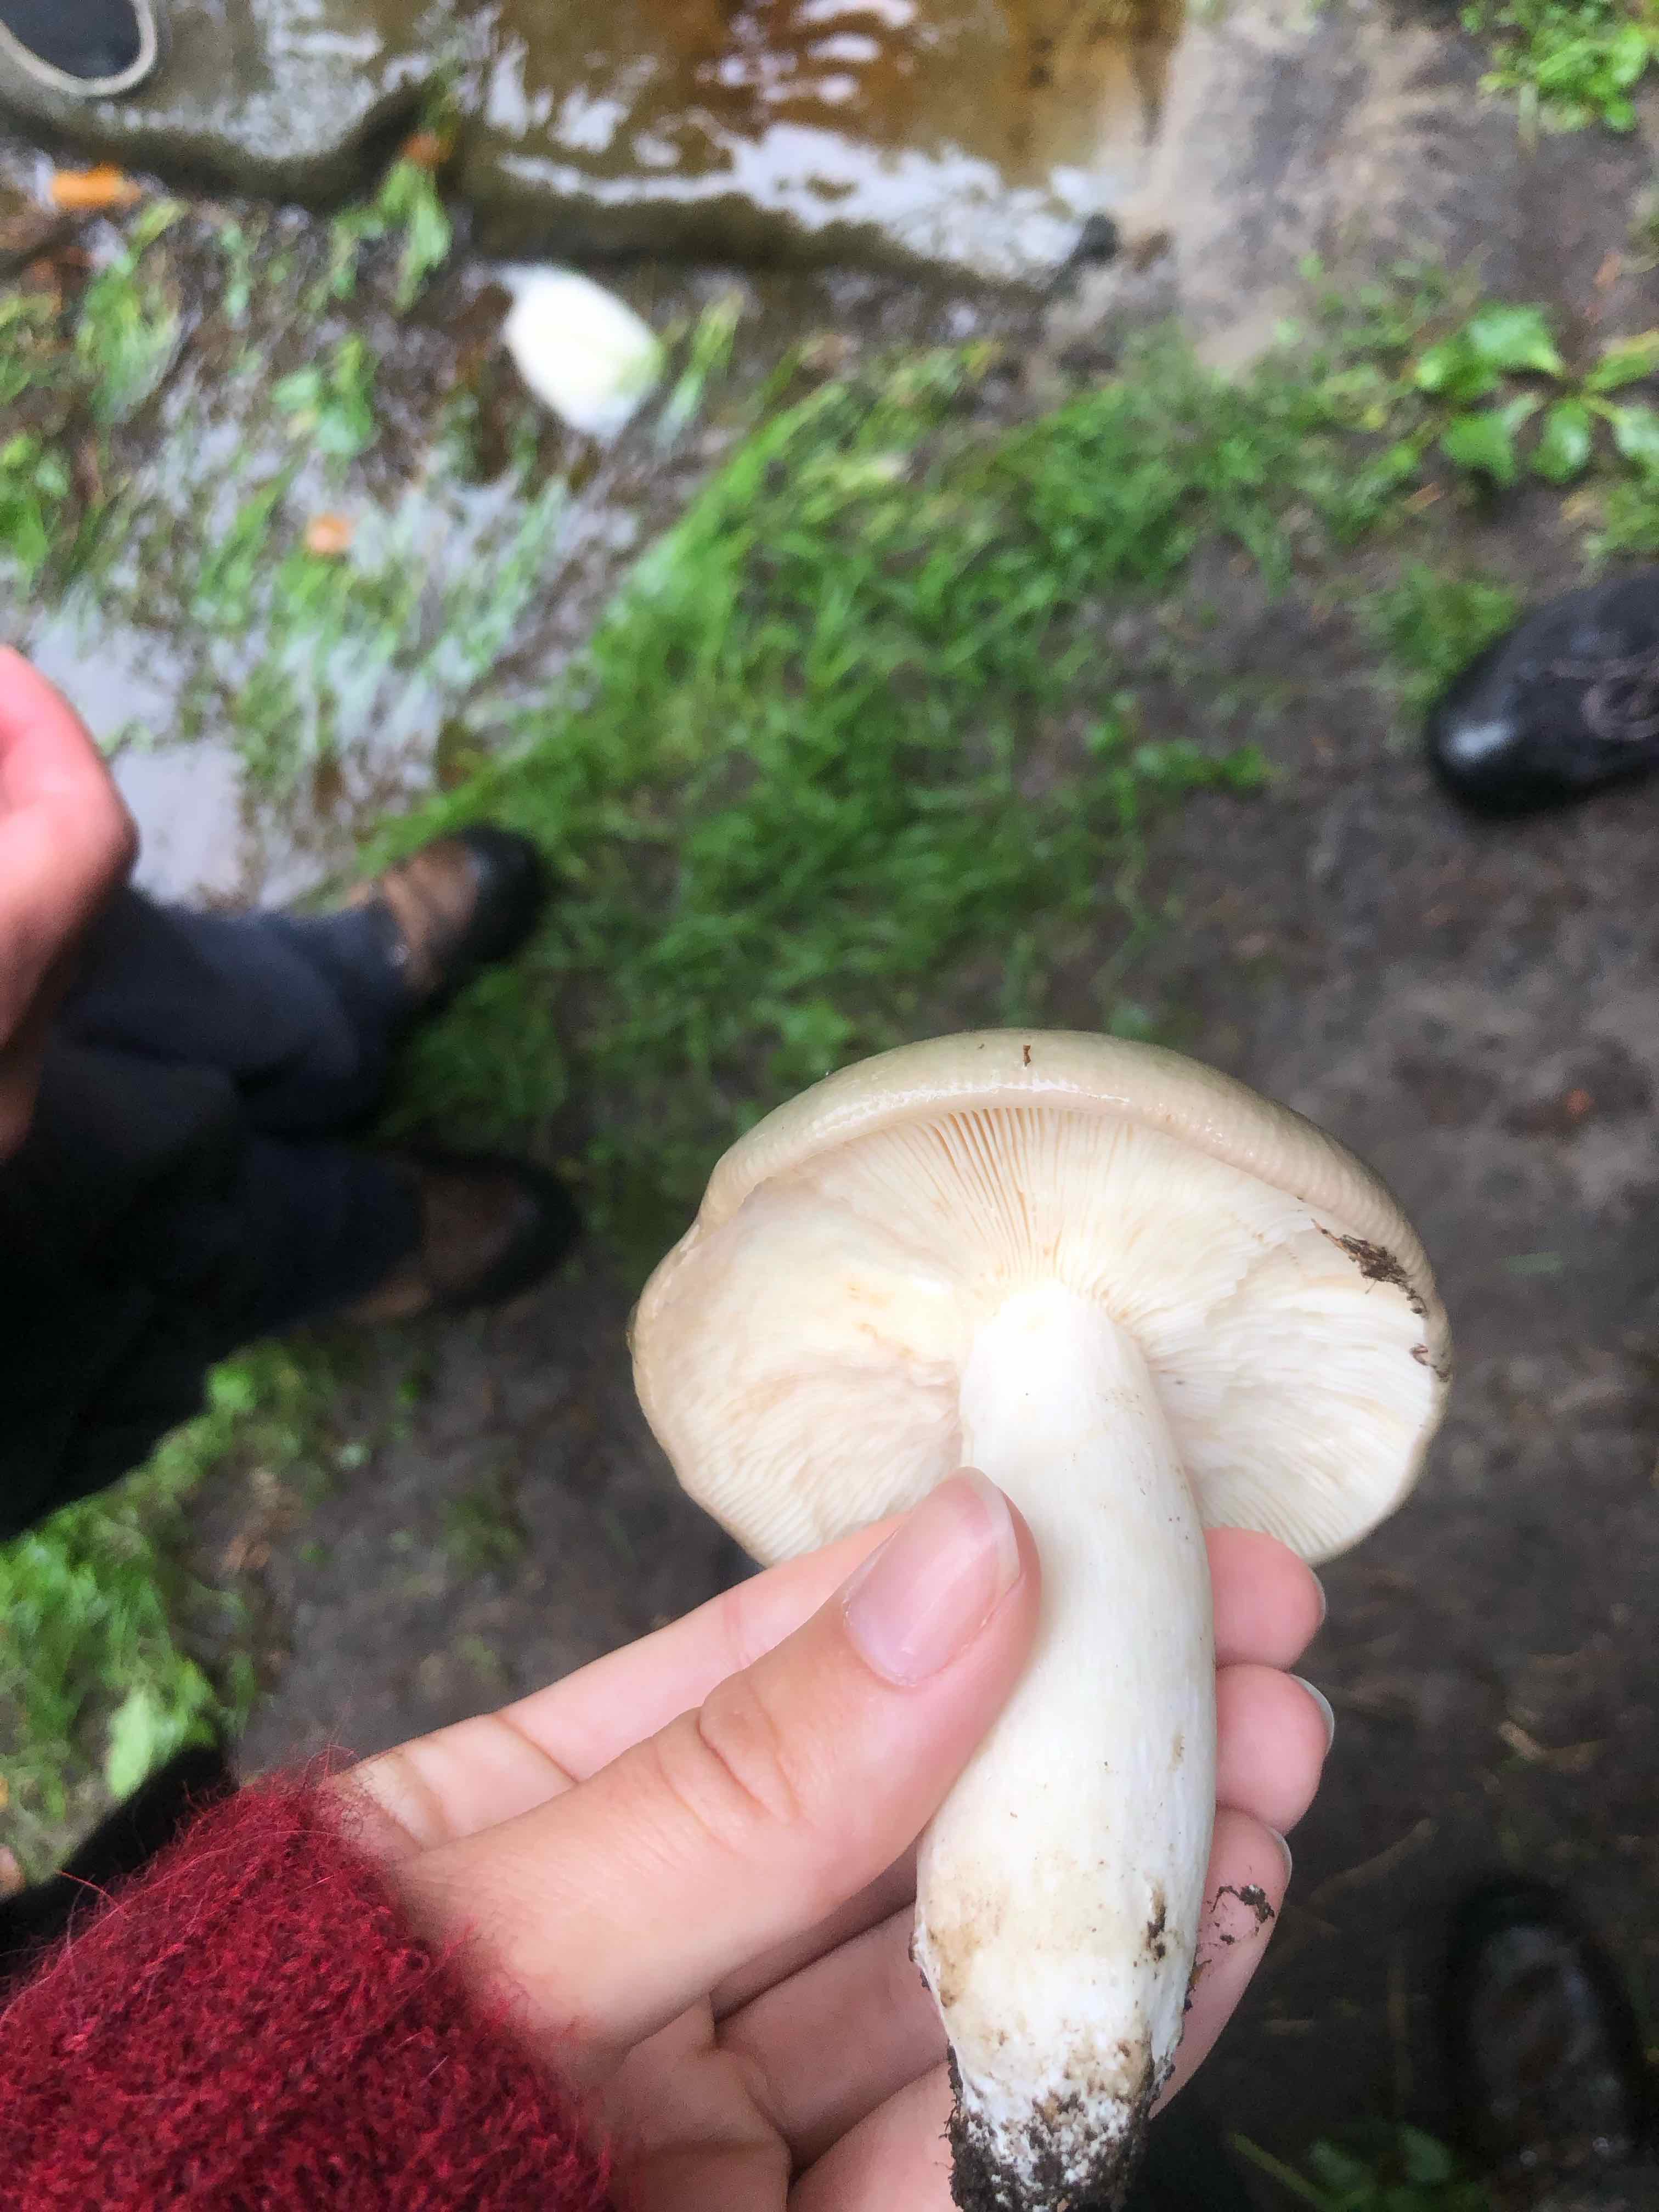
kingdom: Fungi
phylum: Basidiomycota
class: Agaricomycetes
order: Russulales
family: Russulaceae
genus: Russula
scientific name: Russula cyanoxantha
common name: broget skørhat
